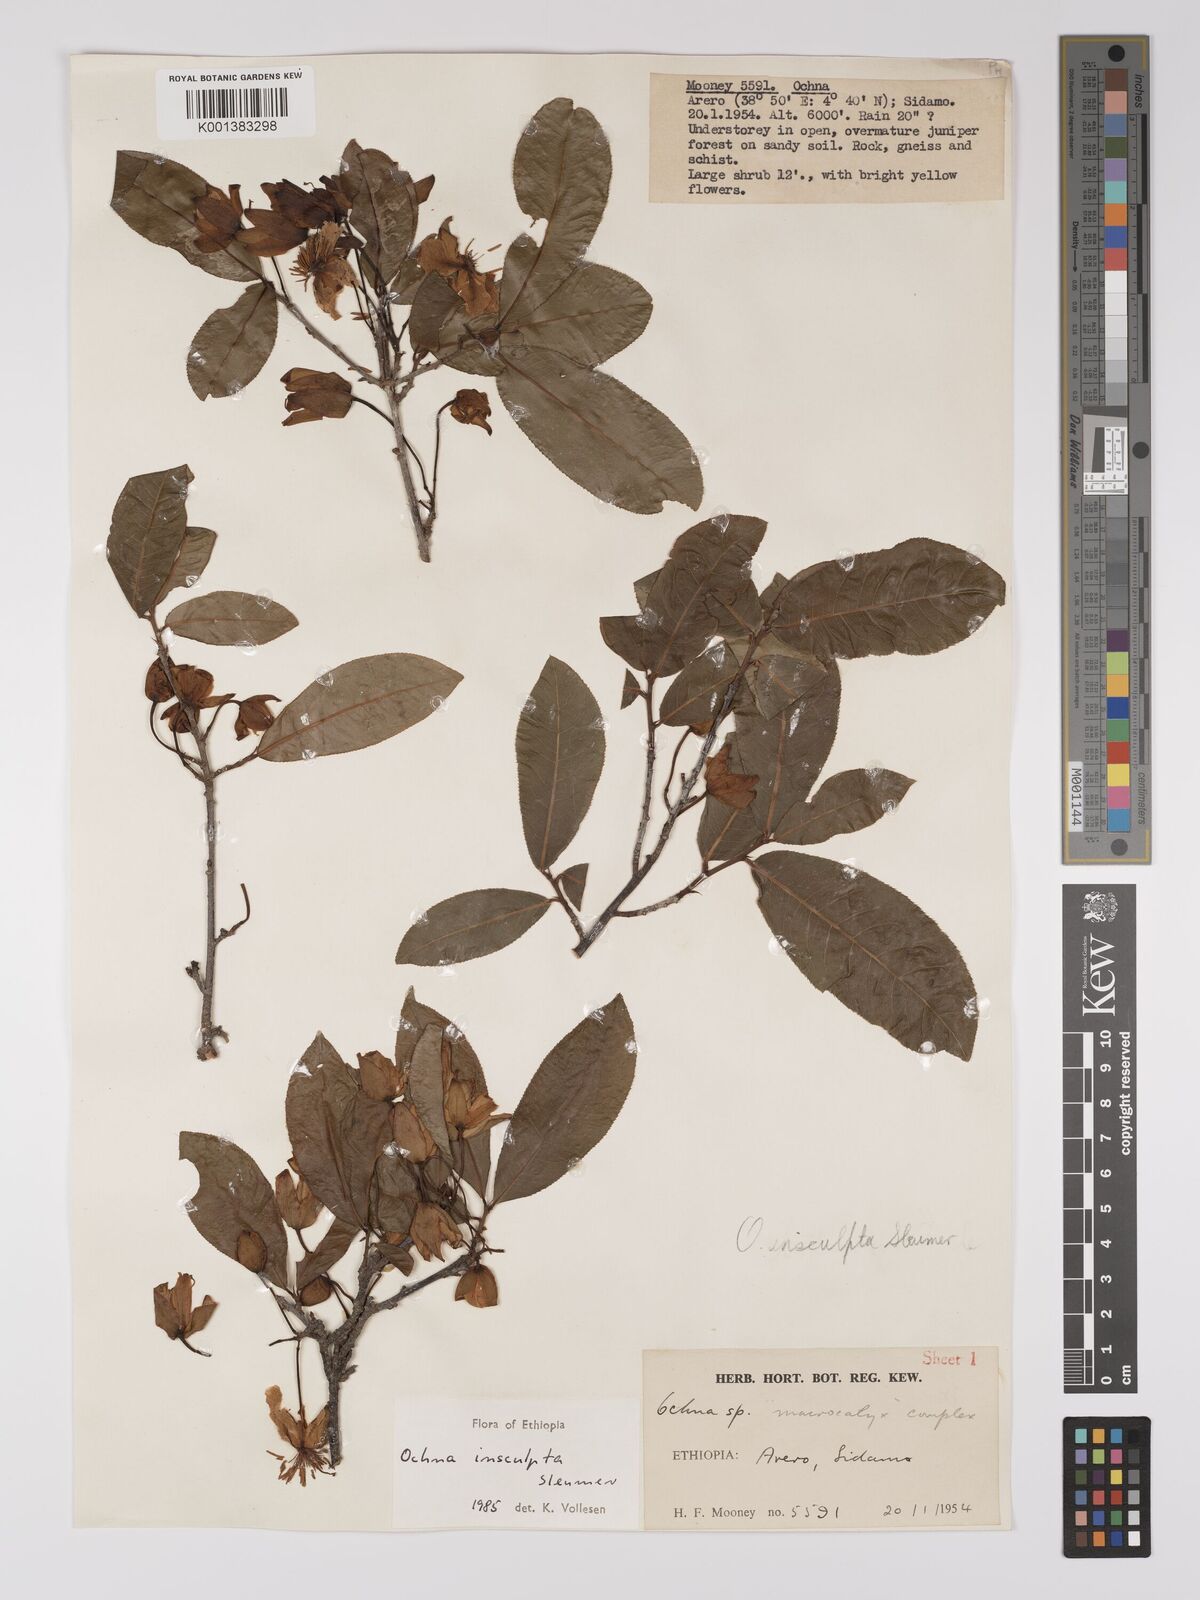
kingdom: Plantae
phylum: Tracheophyta
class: Magnoliopsida
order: Malpighiales
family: Ochnaceae
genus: Ochna
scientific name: Ochna insculpta
